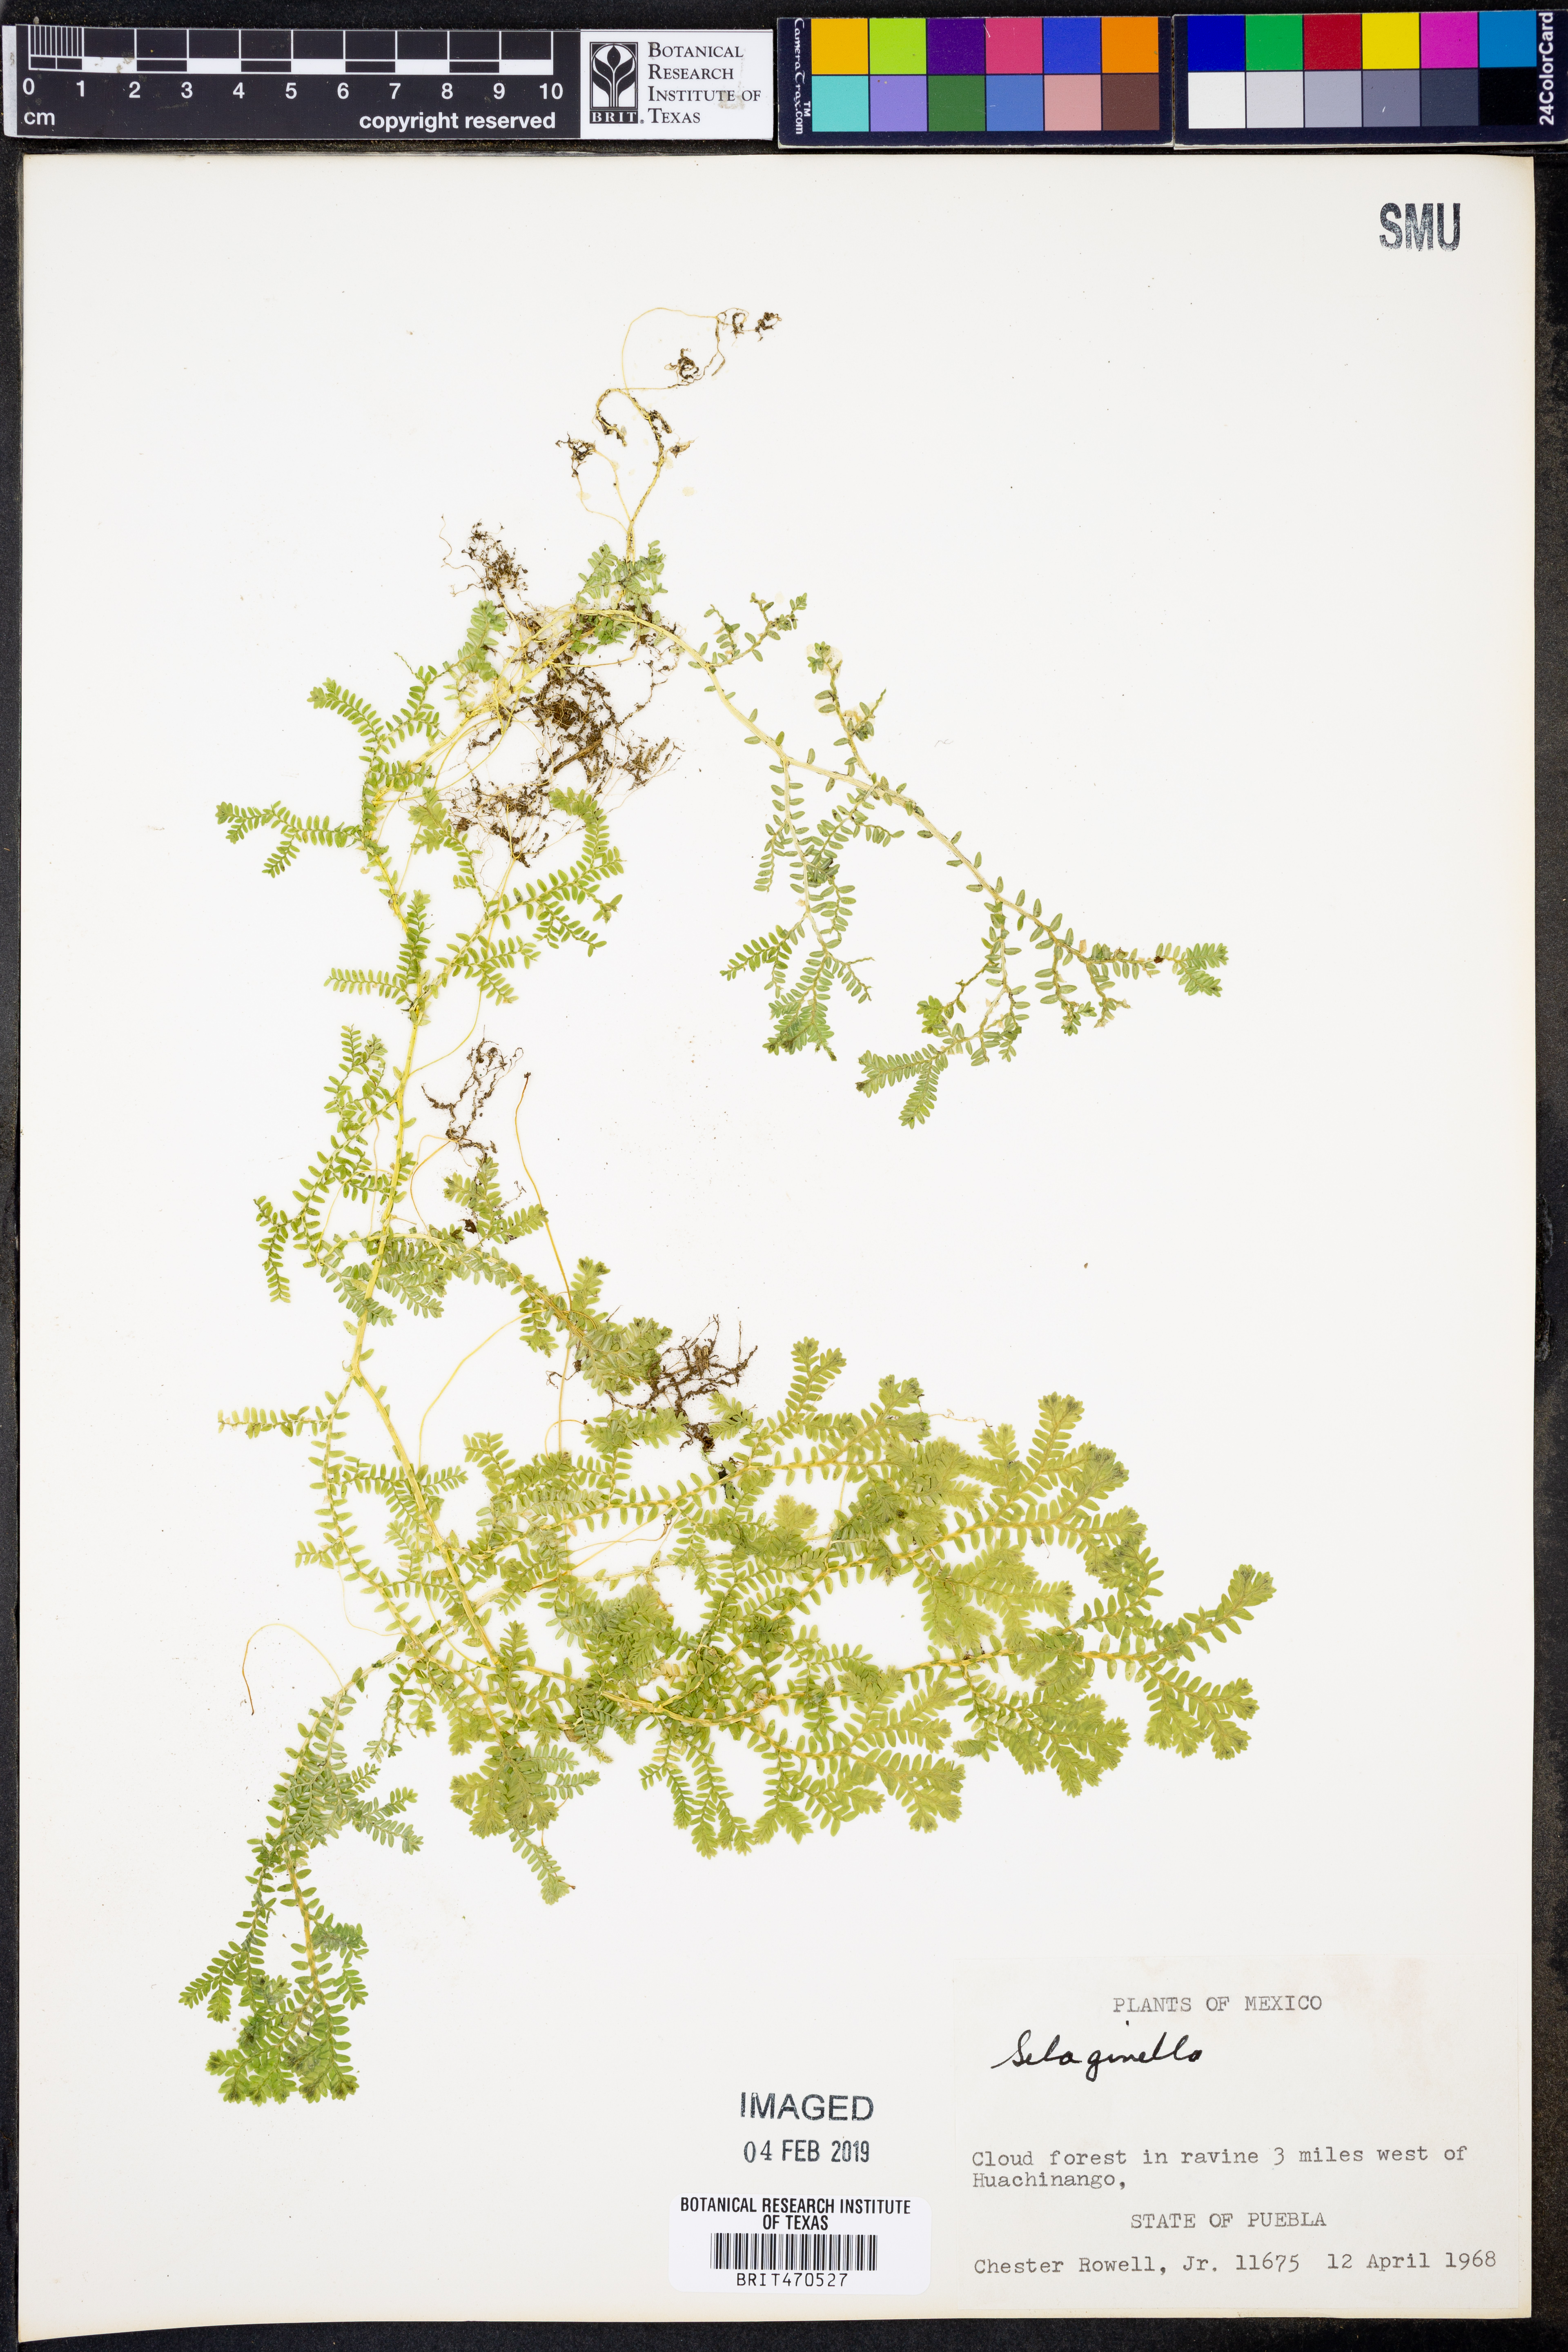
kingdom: Plantae
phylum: Tracheophyta
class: Lycopodiopsida
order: Selaginellales
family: Selaginellaceae
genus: Selaginella
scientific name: Selaginella
